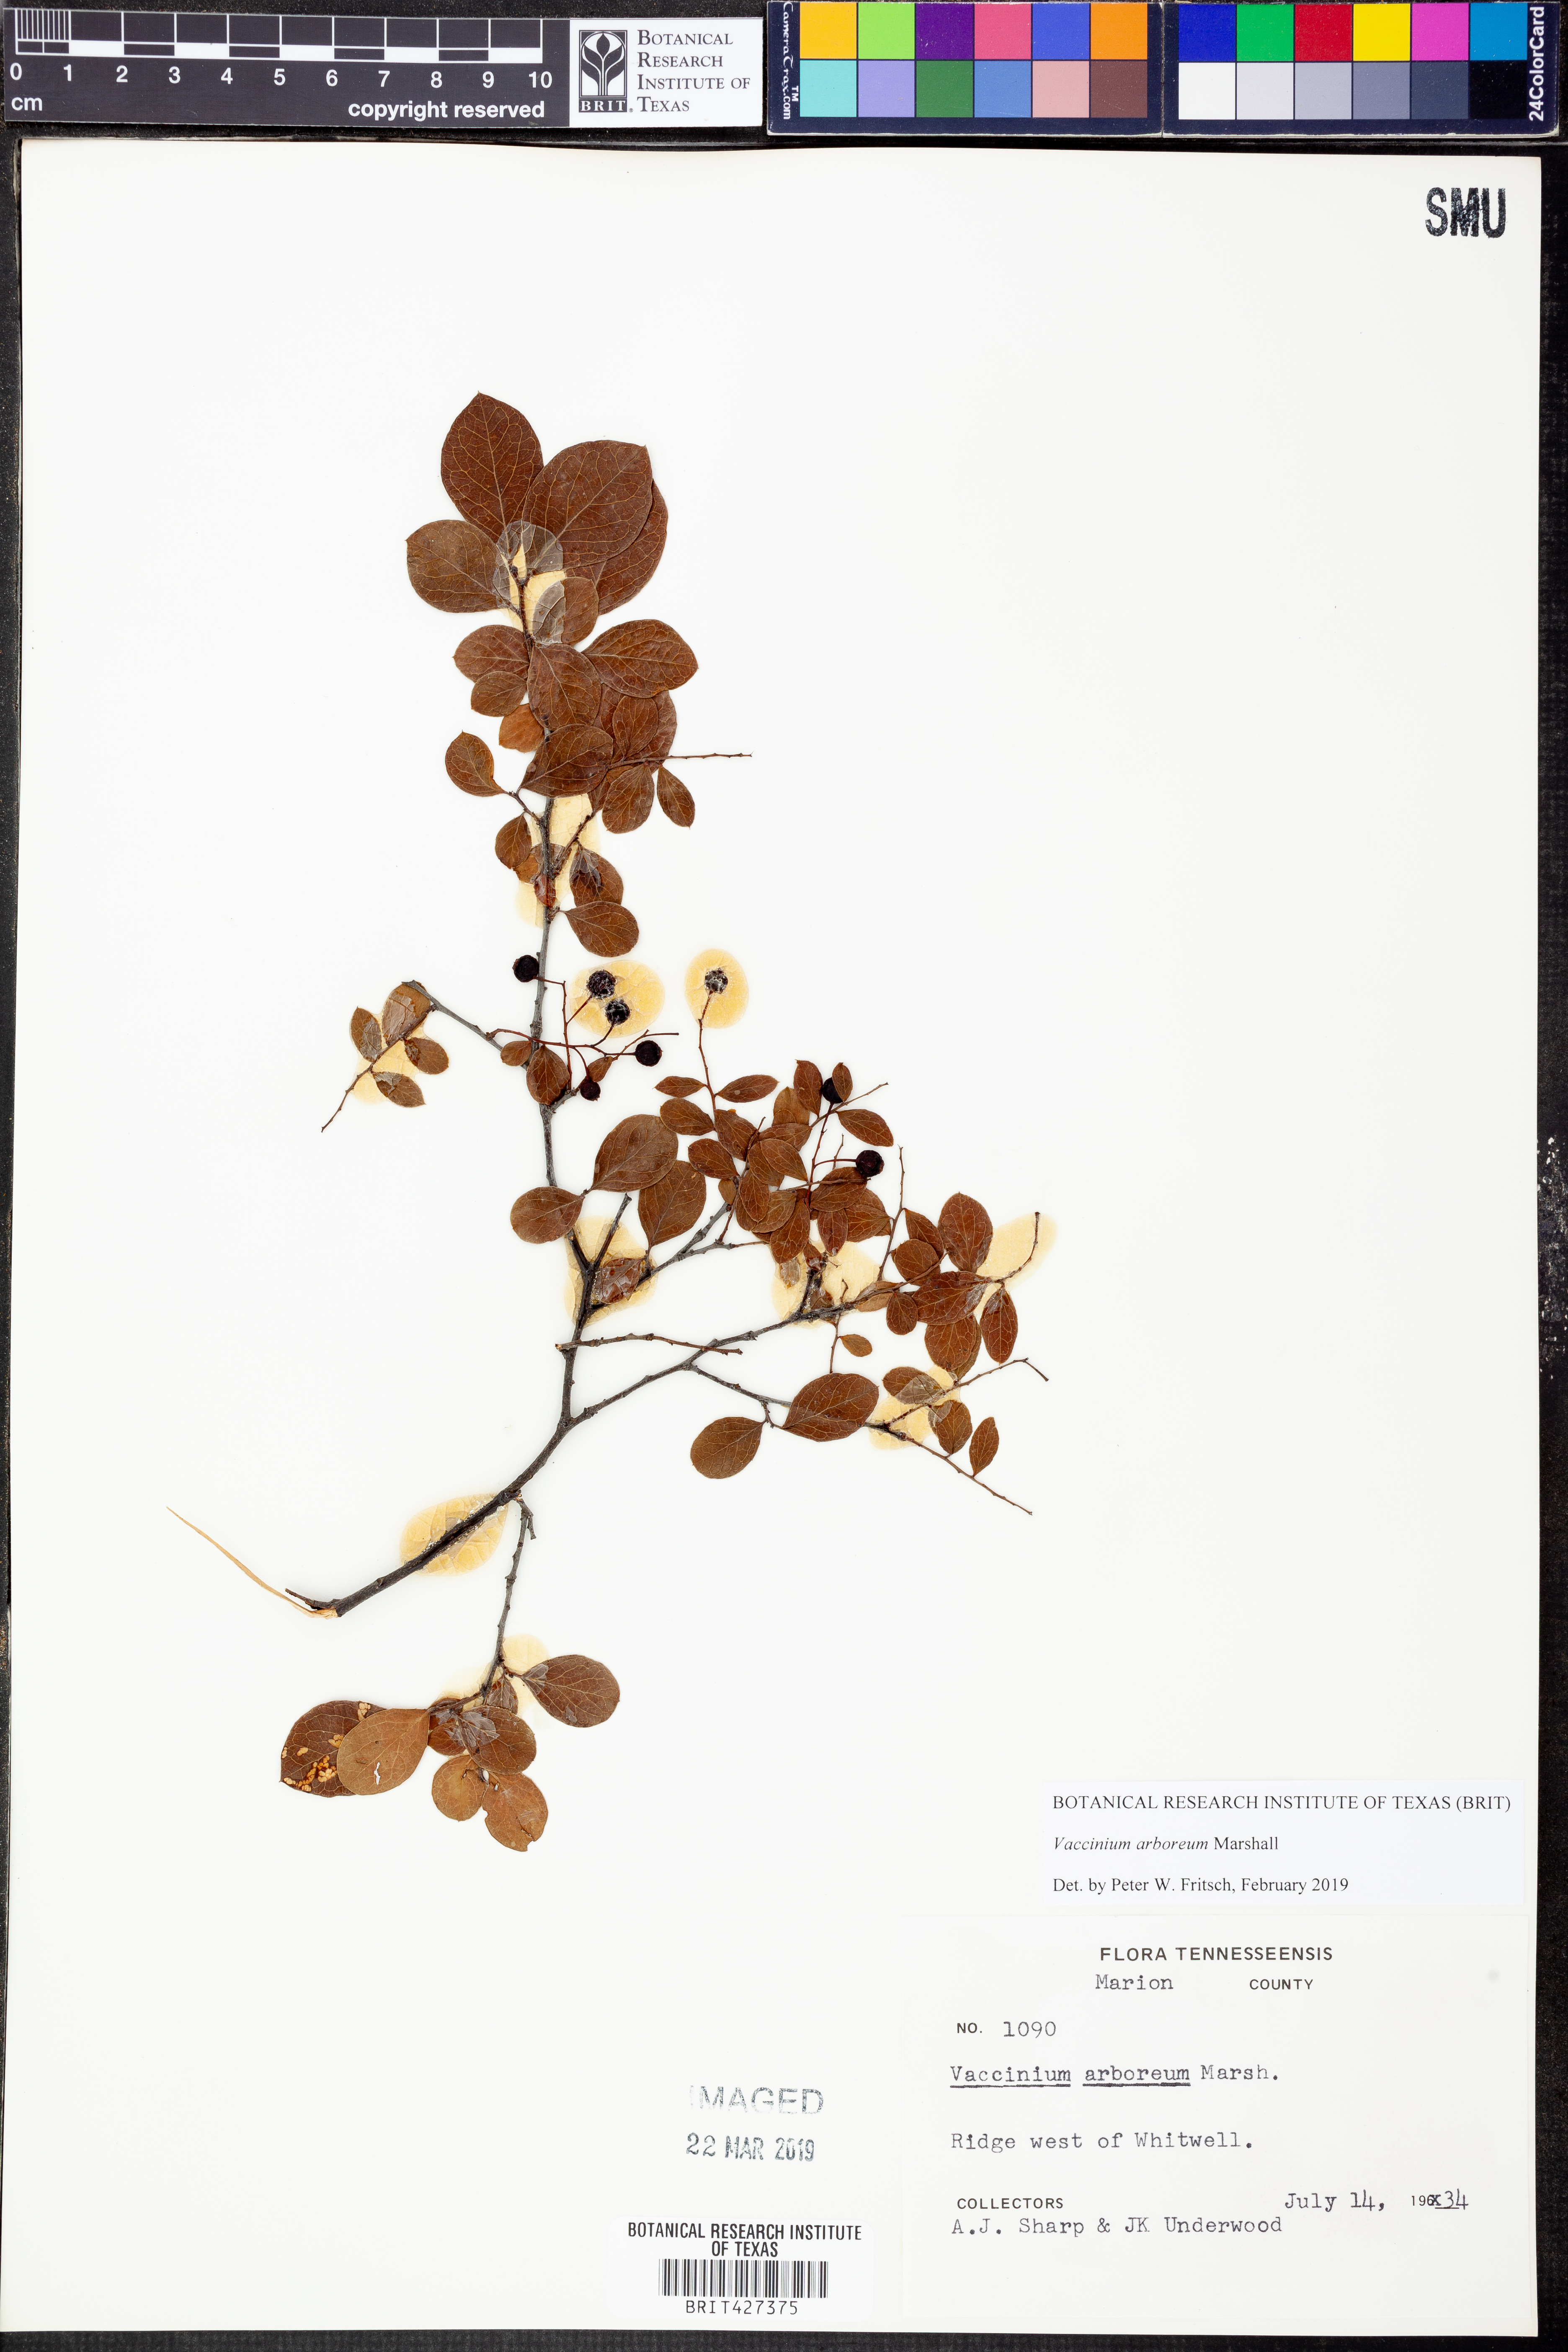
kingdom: Plantae
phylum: Tracheophyta
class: Magnoliopsida
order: Ericales
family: Ericaceae
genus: Vaccinium
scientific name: Vaccinium arboreum
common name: Farkleberry
